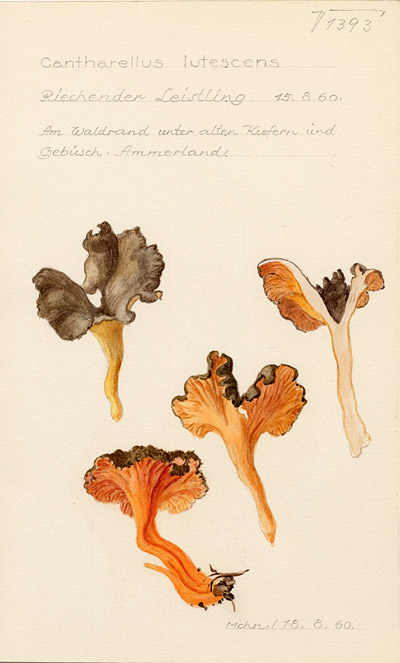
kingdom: Fungi
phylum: Basidiomycota
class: Agaricomycetes
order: Cantharellales
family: Hydnaceae
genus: Craterellus
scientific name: Craterellus lutescens
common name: Golden chanterelle
